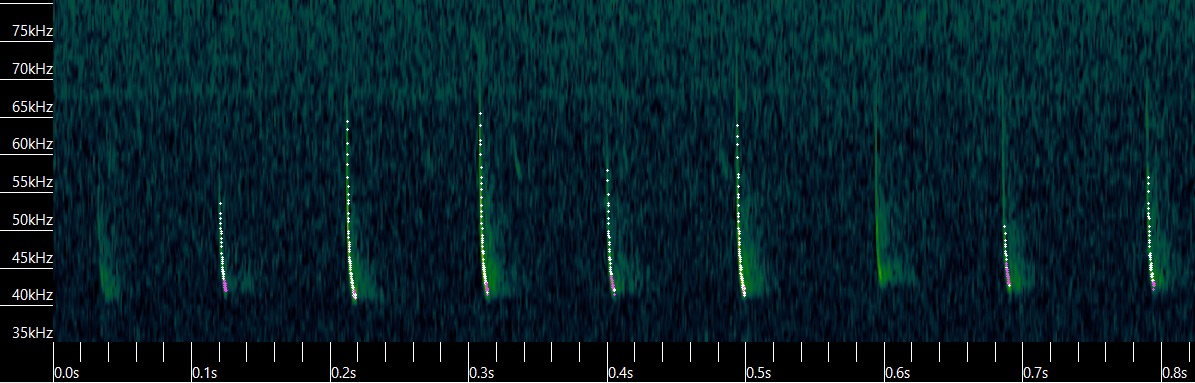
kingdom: Animalia
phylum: Chordata
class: Mammalia
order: Chiroptera
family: Vespertilionidae
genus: Pipistrellus
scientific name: Pipistrellus nathusii
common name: Troldflagermus
